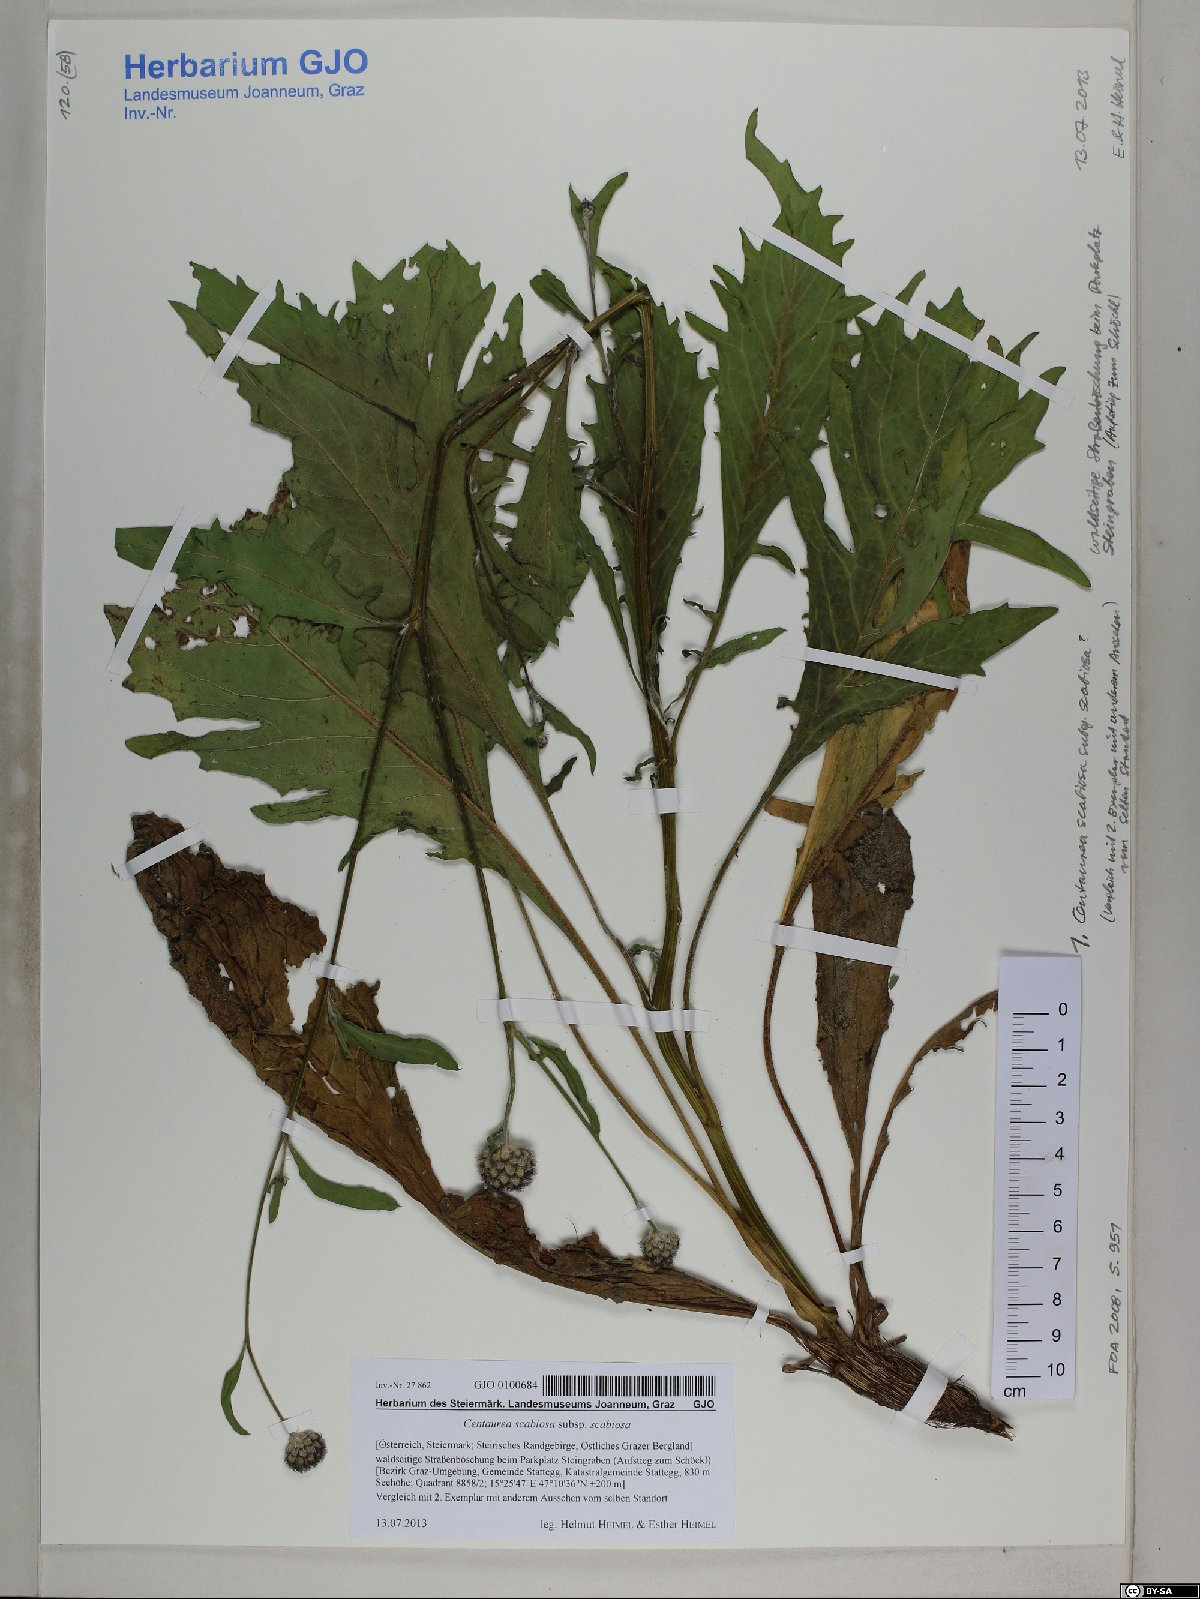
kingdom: Plantae
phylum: Tracheophyta
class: Magnoliopsida
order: Asterales
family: Asteraceae
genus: Centaurea
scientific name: Centaurea scabiosa
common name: Greater knapweed
